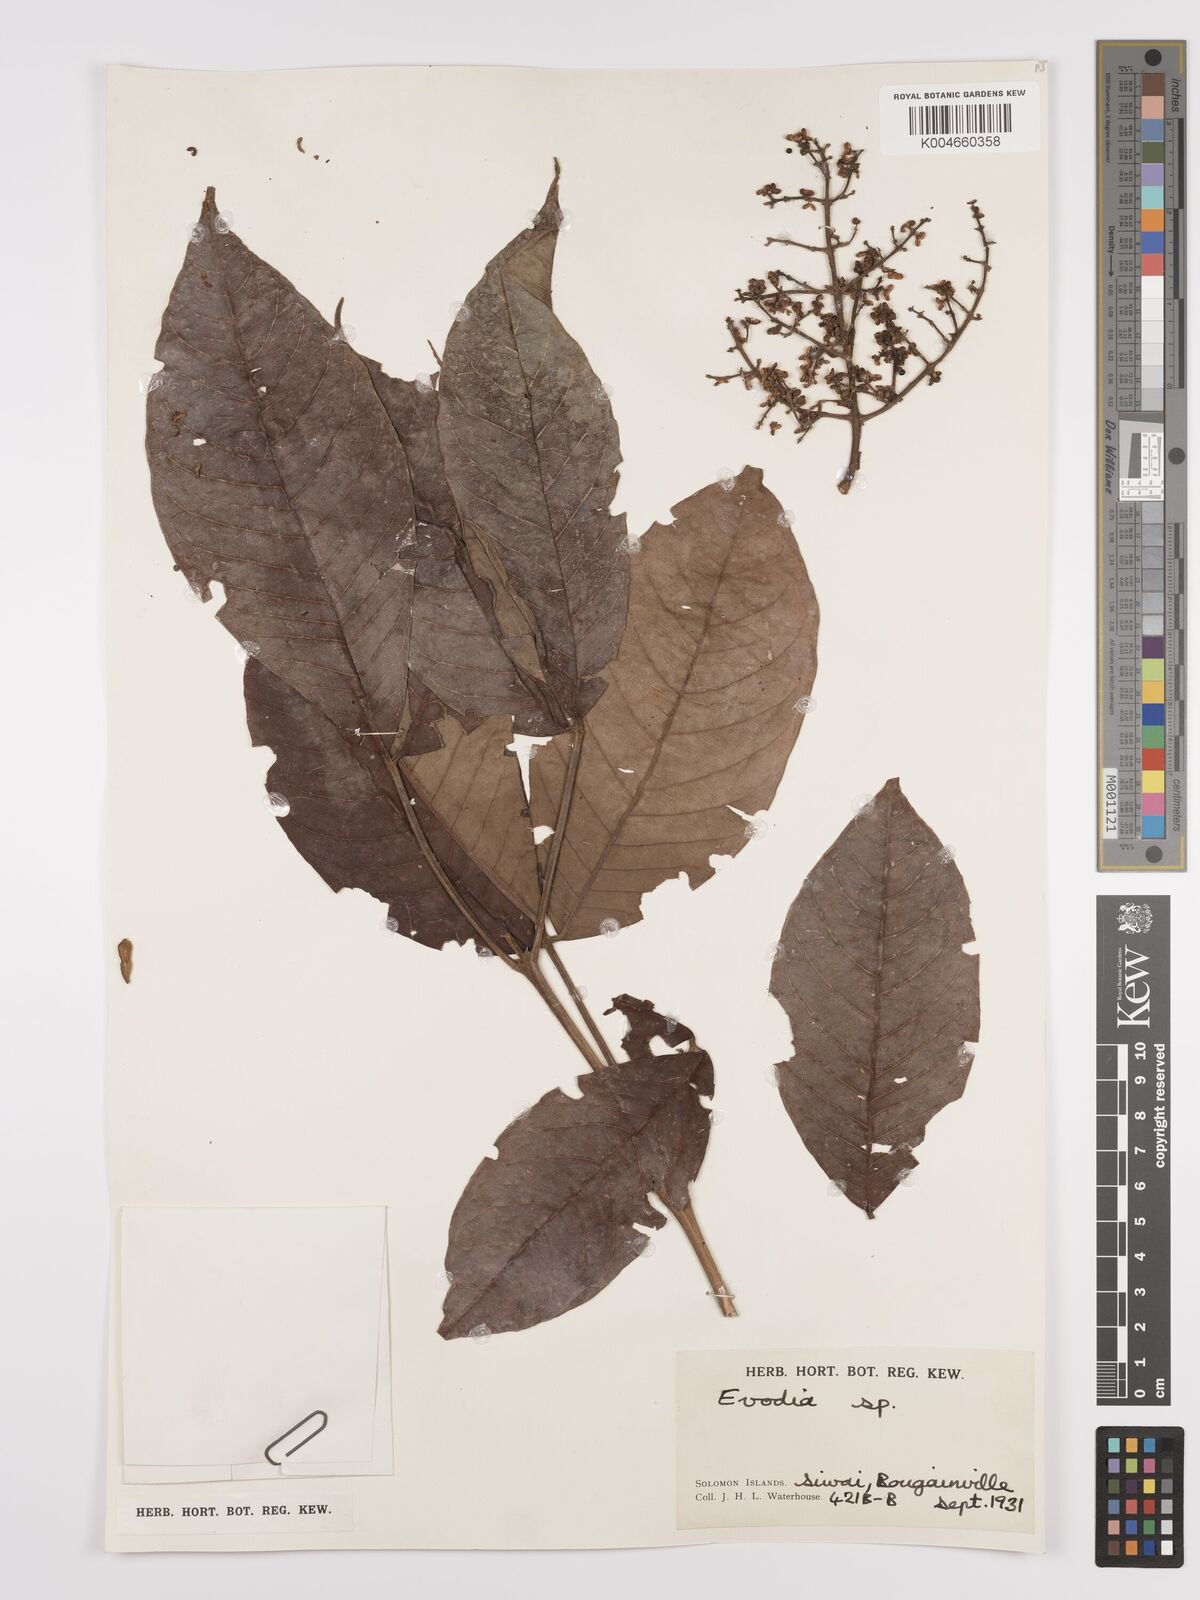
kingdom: Plantae
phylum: Tracheophyta
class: Magnoliopsida
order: Sapindales
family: Rutaceae
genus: Euodia
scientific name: Euodia
